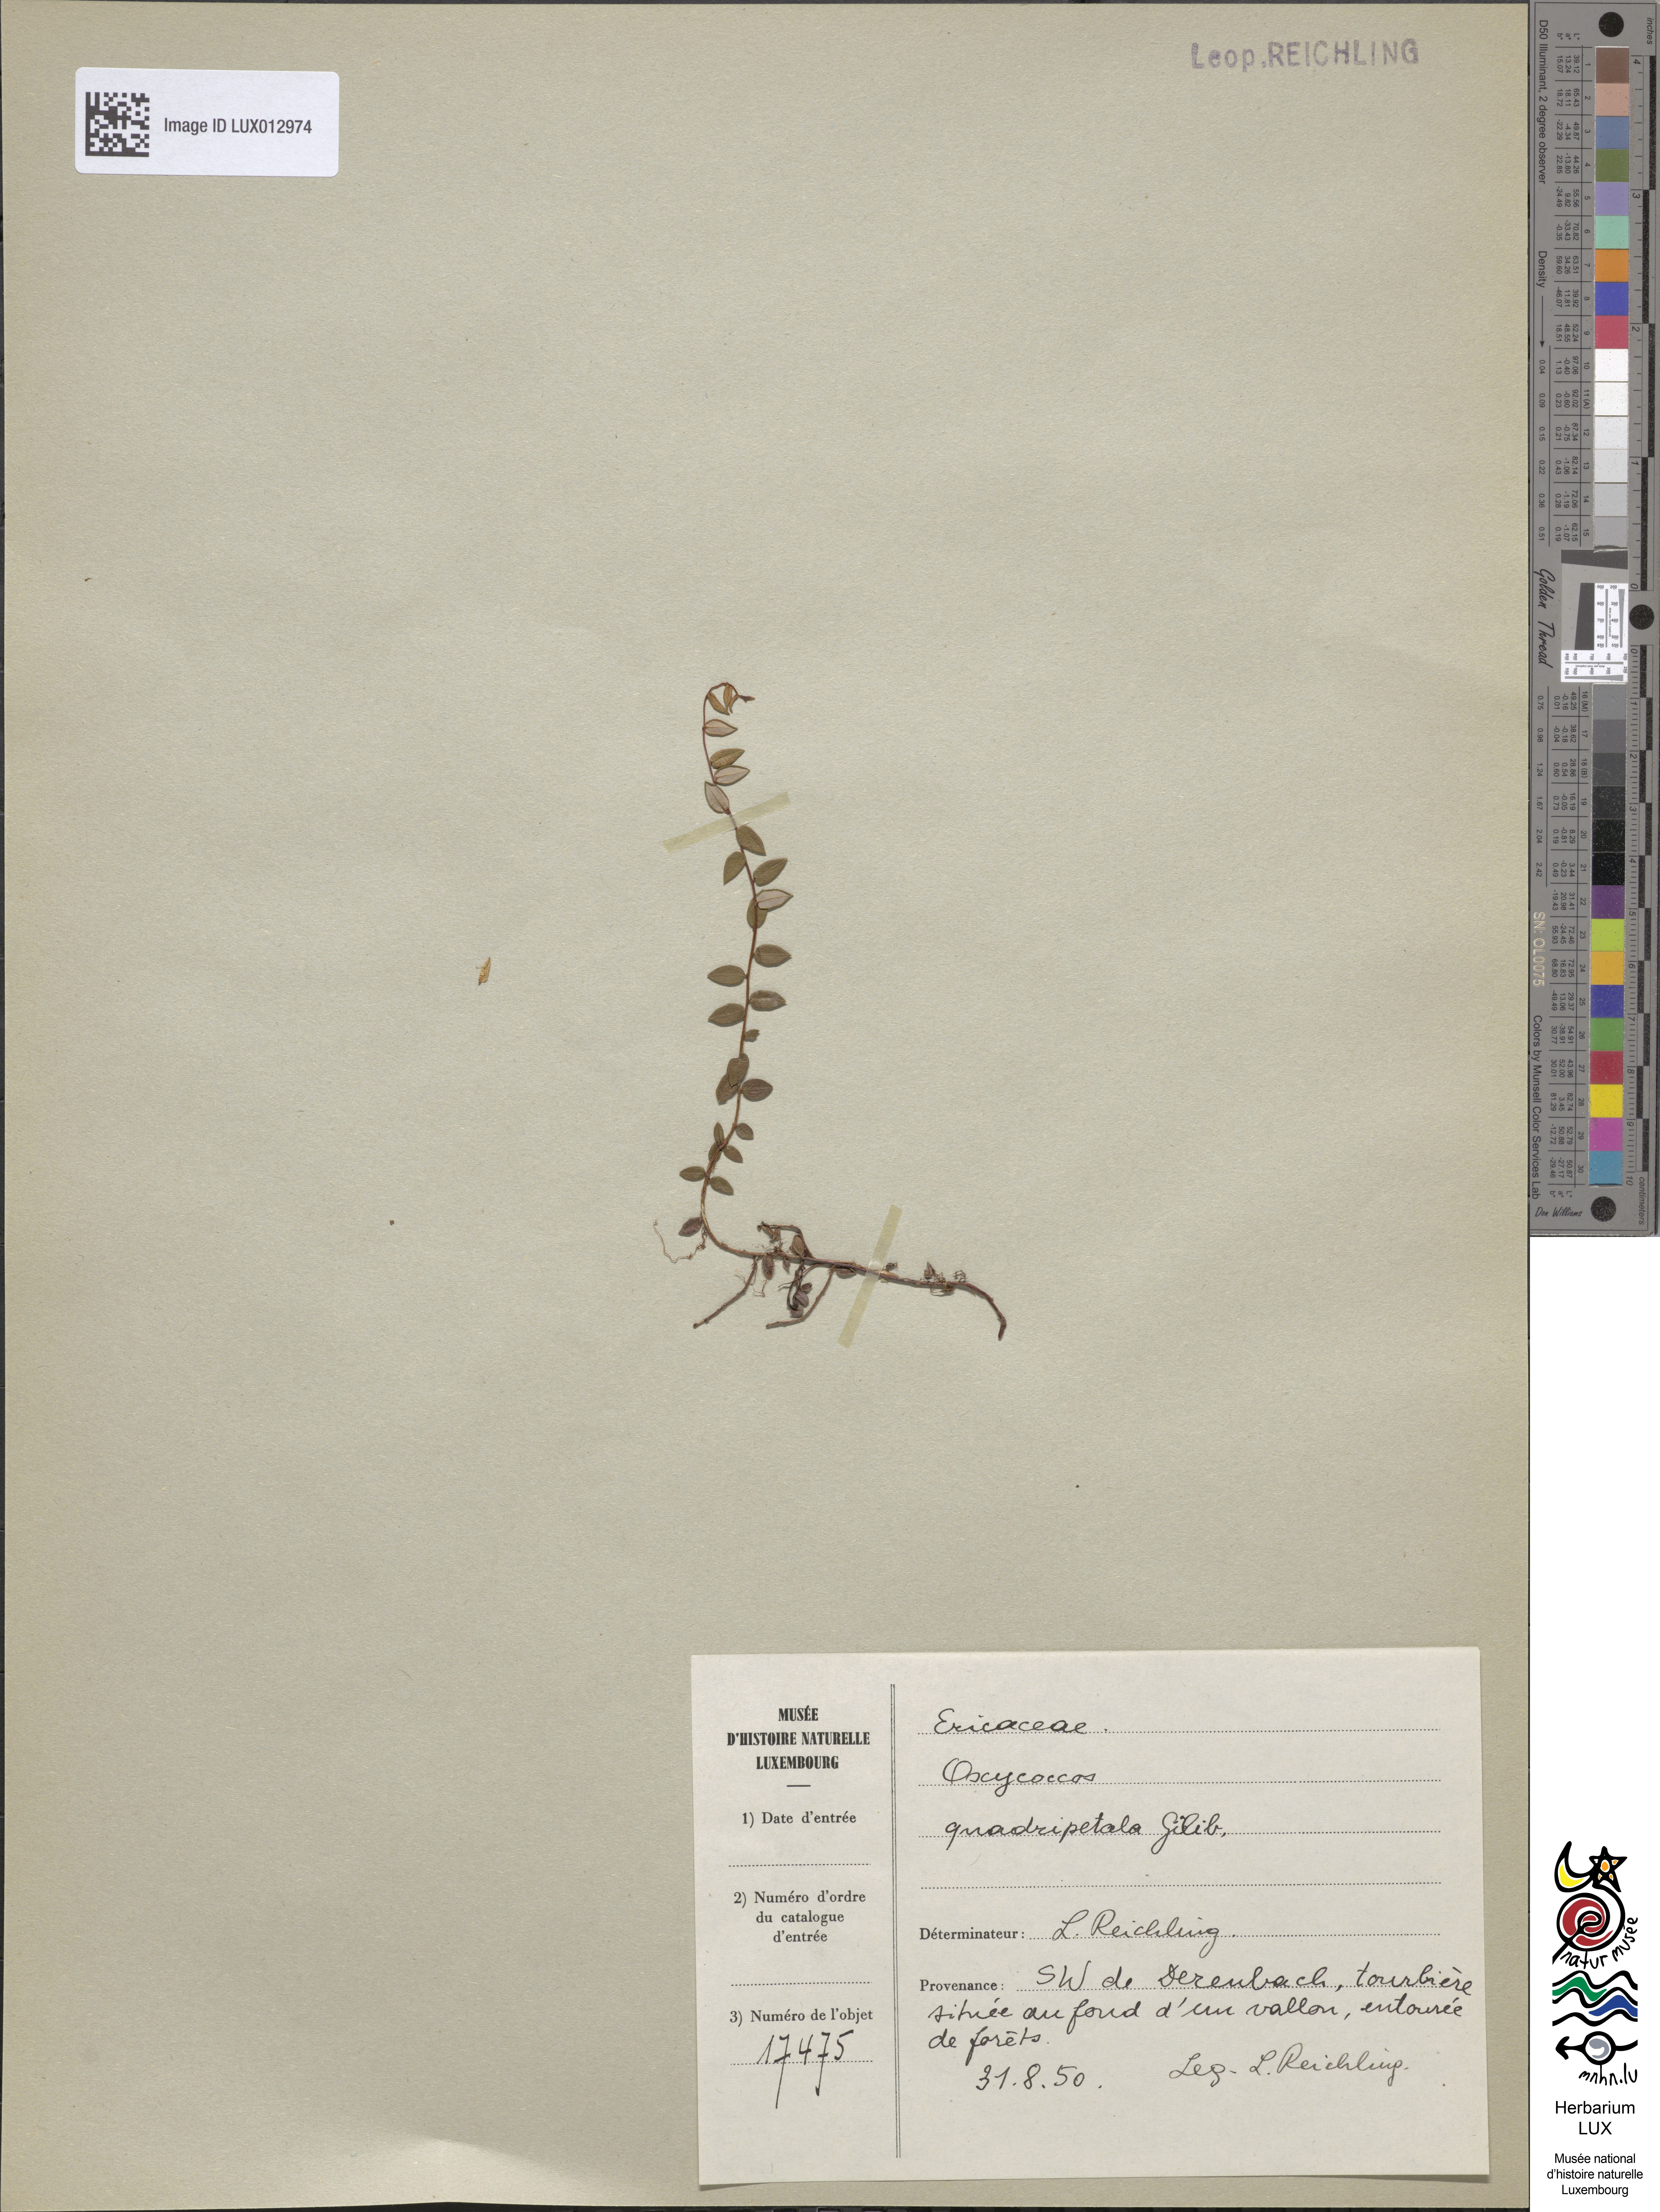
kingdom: Plantae
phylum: Tracheophyta
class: Magnoliopsida
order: Ericales
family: Ericaceae
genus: Vaccinium
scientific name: Vaccinium oxycoccos
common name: Cranberry
